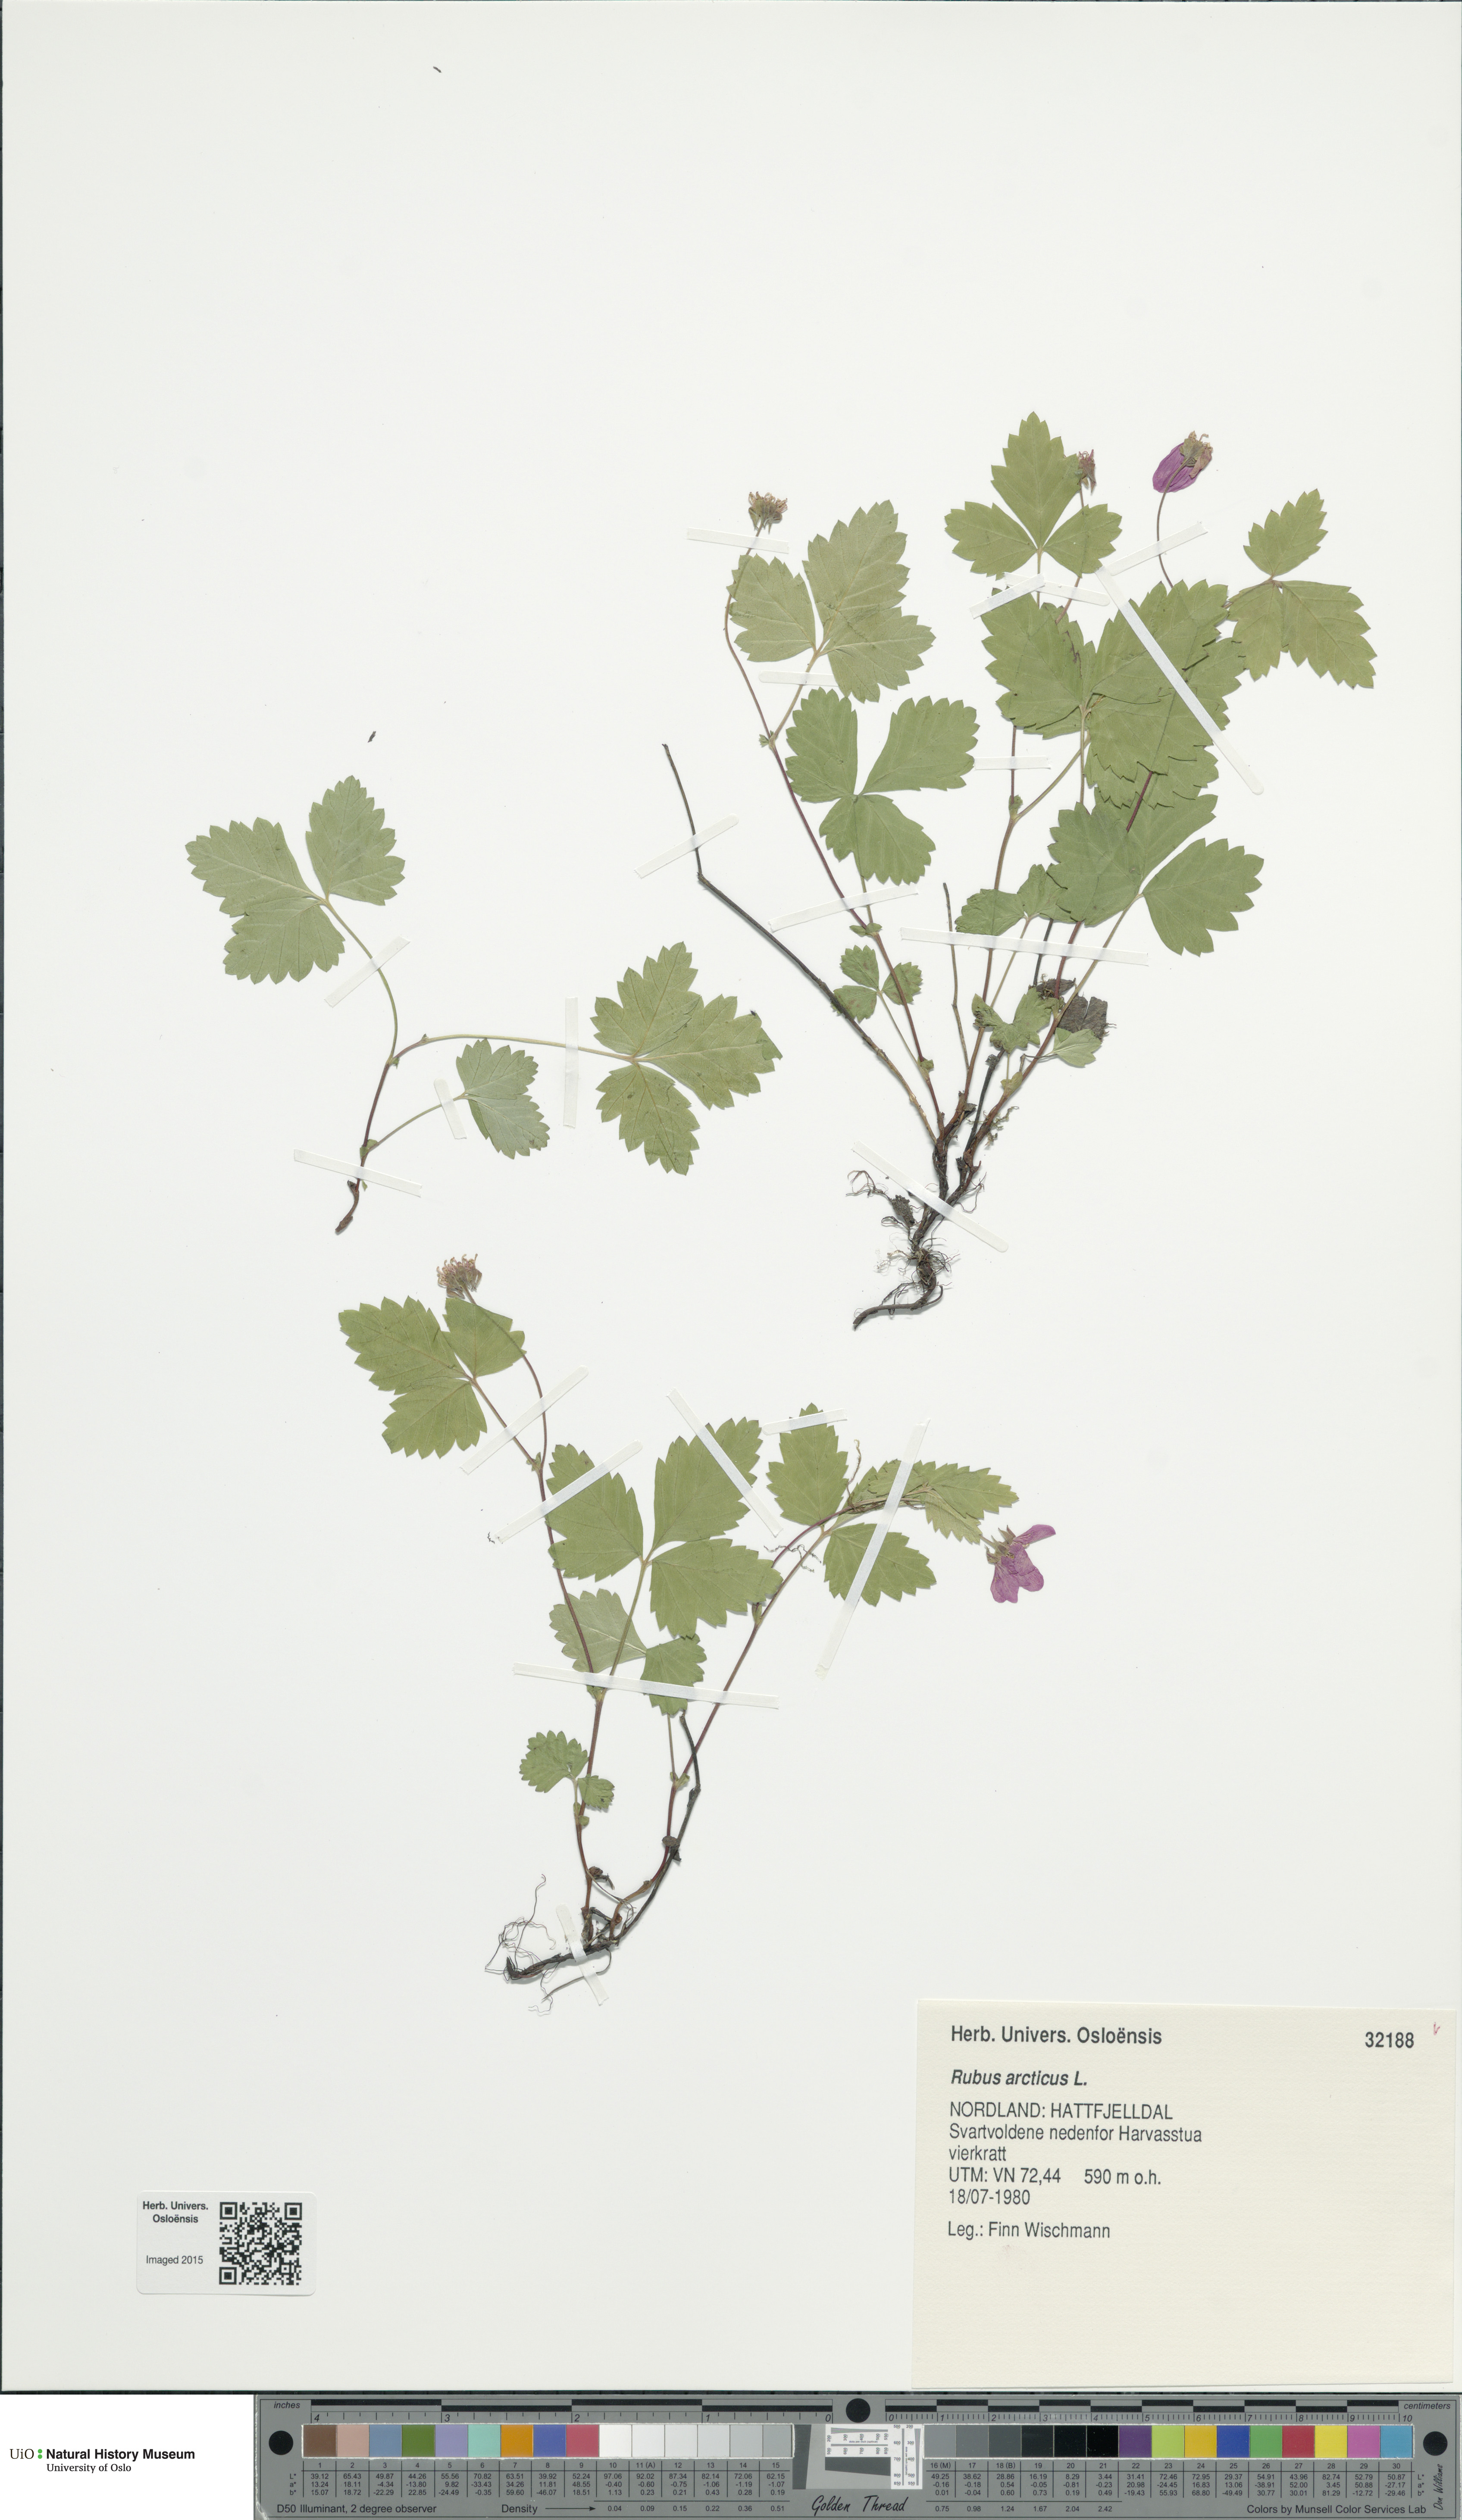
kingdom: Plantae
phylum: Tracheophyta
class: Magnoliopsida
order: Rosales
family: Rosaceae
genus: Rubus
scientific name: Rubus arcticus
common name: Arctic bramble
